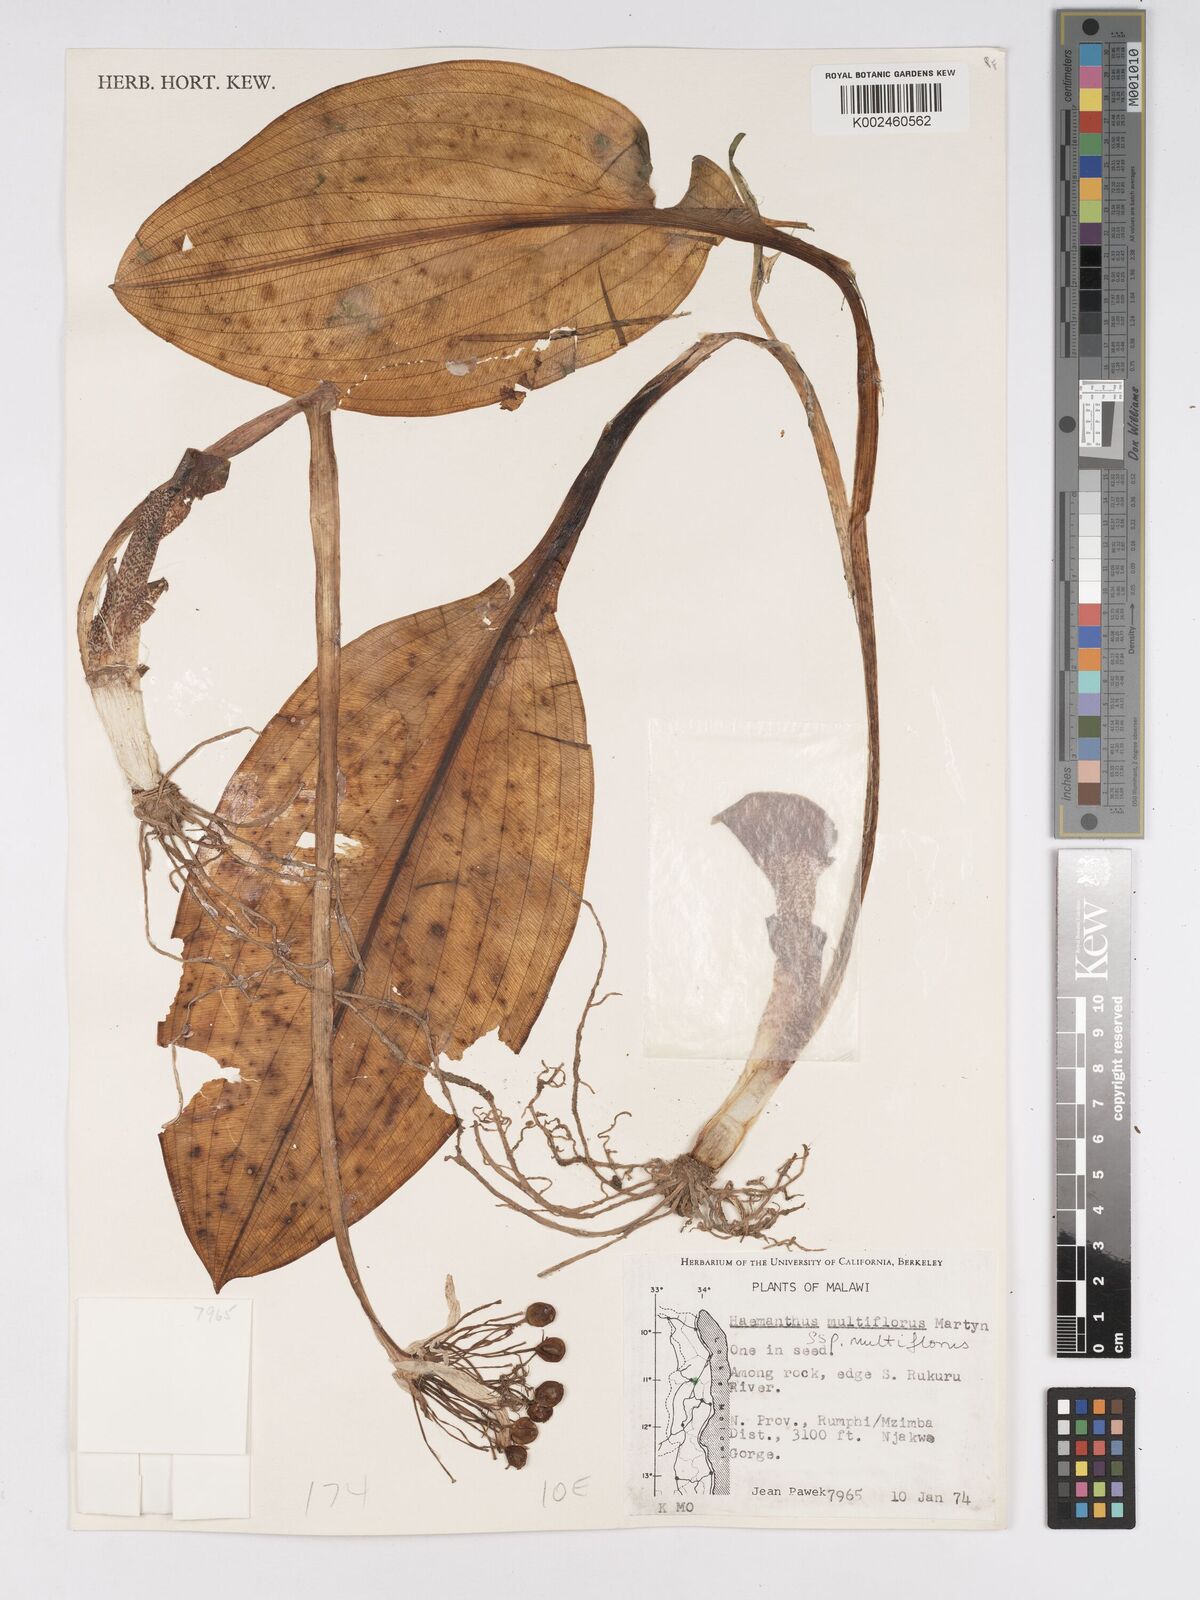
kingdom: Plantae
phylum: Tracheophyta
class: Liliopsida
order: Asparagales
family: Amaryllidaceae
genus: Scadoxus
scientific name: Scadoxus multiflorus
